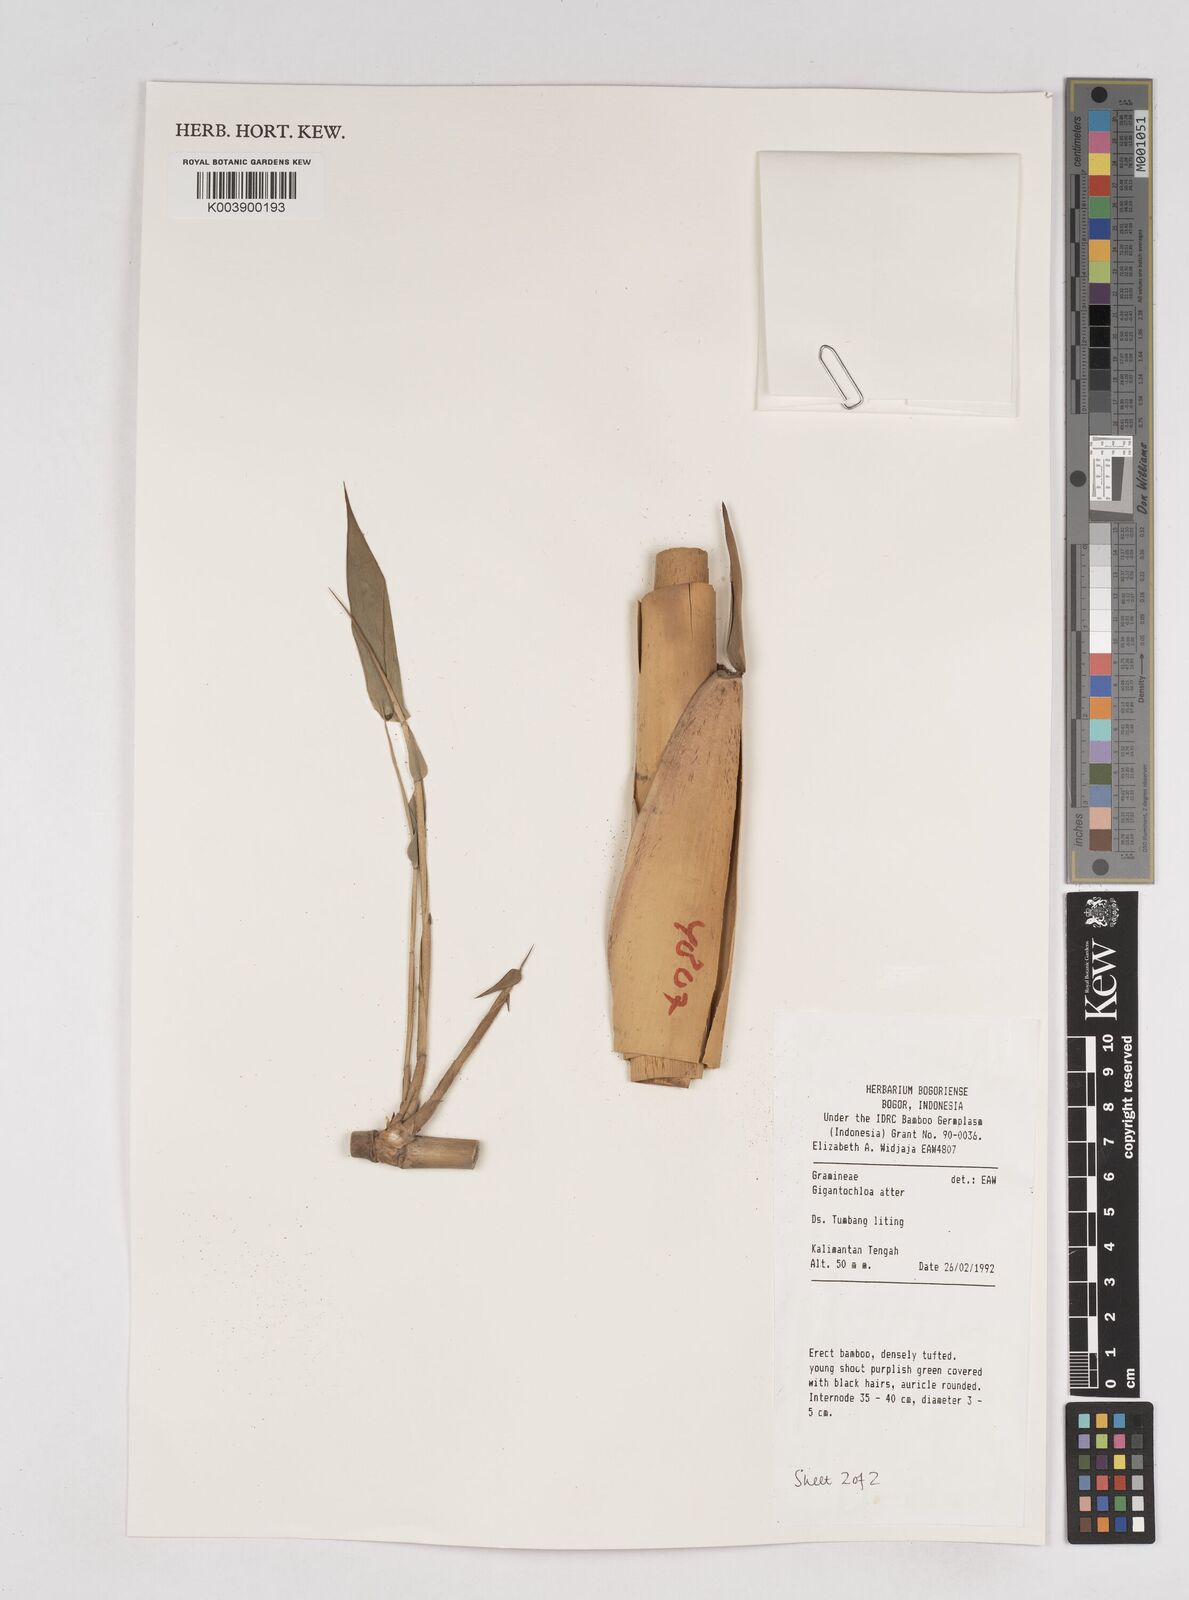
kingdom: Plantae
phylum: Tracheophyta
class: Liliopsida
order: Poales
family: Poaceae
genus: Gigantochloa
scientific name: Gigantochloa atter
